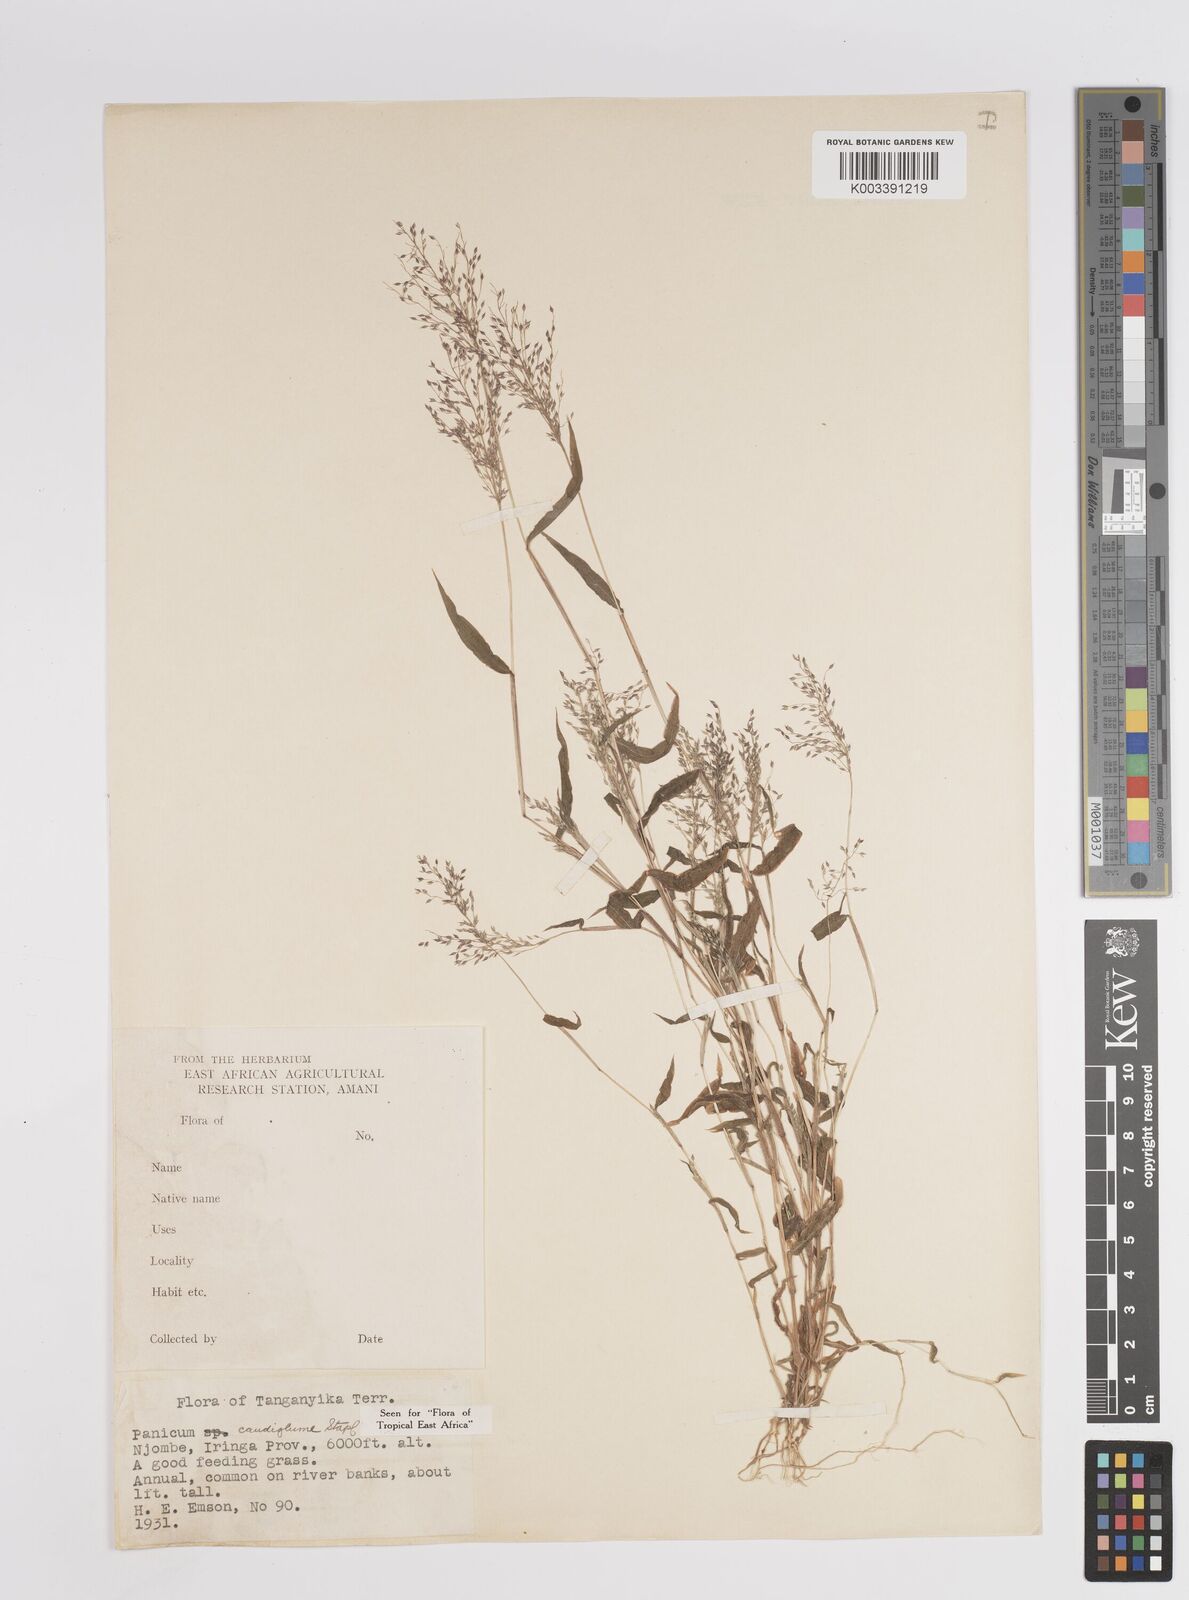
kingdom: Plantae
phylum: Tracheophyta
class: Liliopsida
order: Poales
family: Poaceae
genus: Panicum
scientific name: Panicum delicatulum
